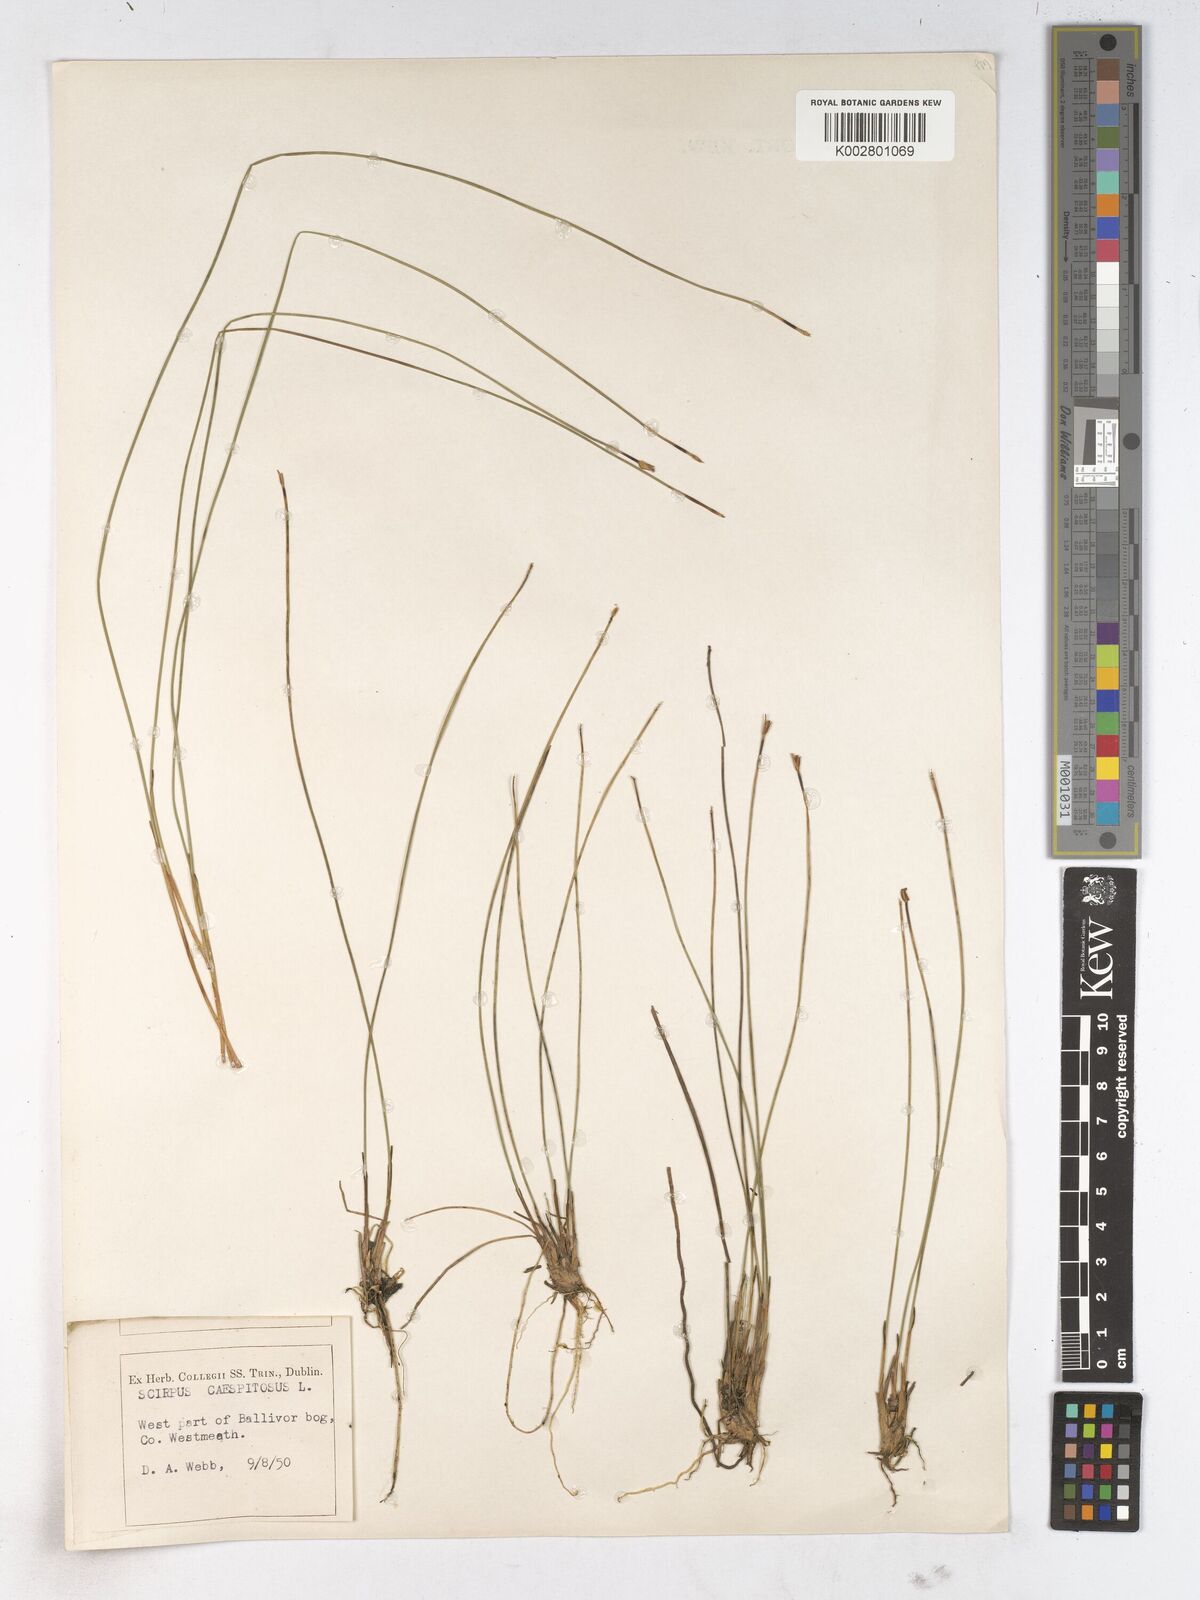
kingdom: Plantae
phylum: Tracheophyta
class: Liliopsida
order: Poales
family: Cyperaceae
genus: Trichophorum
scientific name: Trichophorum cespitosum
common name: Cespitose bulrush
